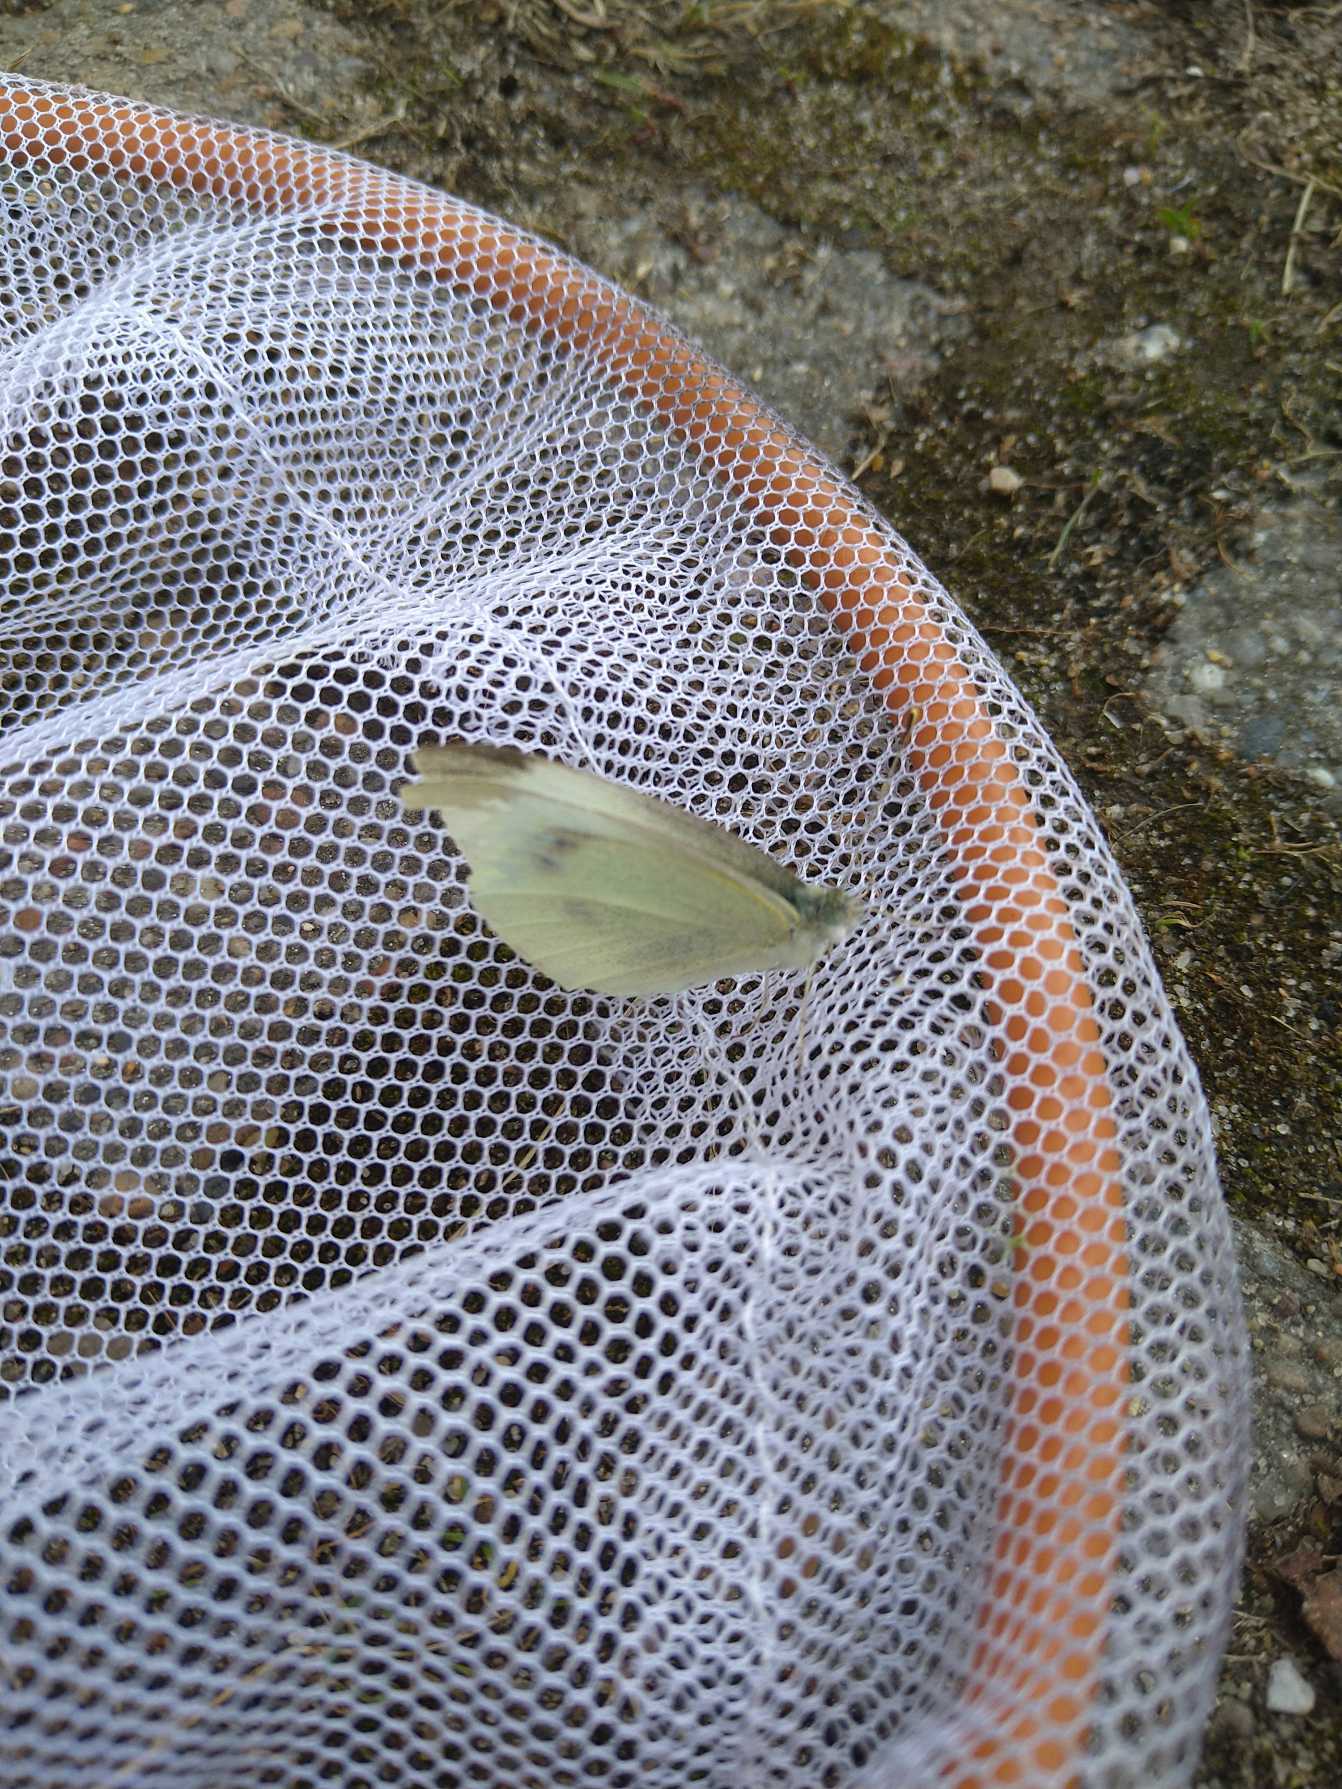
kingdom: Animalia
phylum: Arthropoda
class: Insecta
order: Lepidoptera
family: Pieridae
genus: Pieris
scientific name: Pieris rapae
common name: Lille kålsommerfugl
